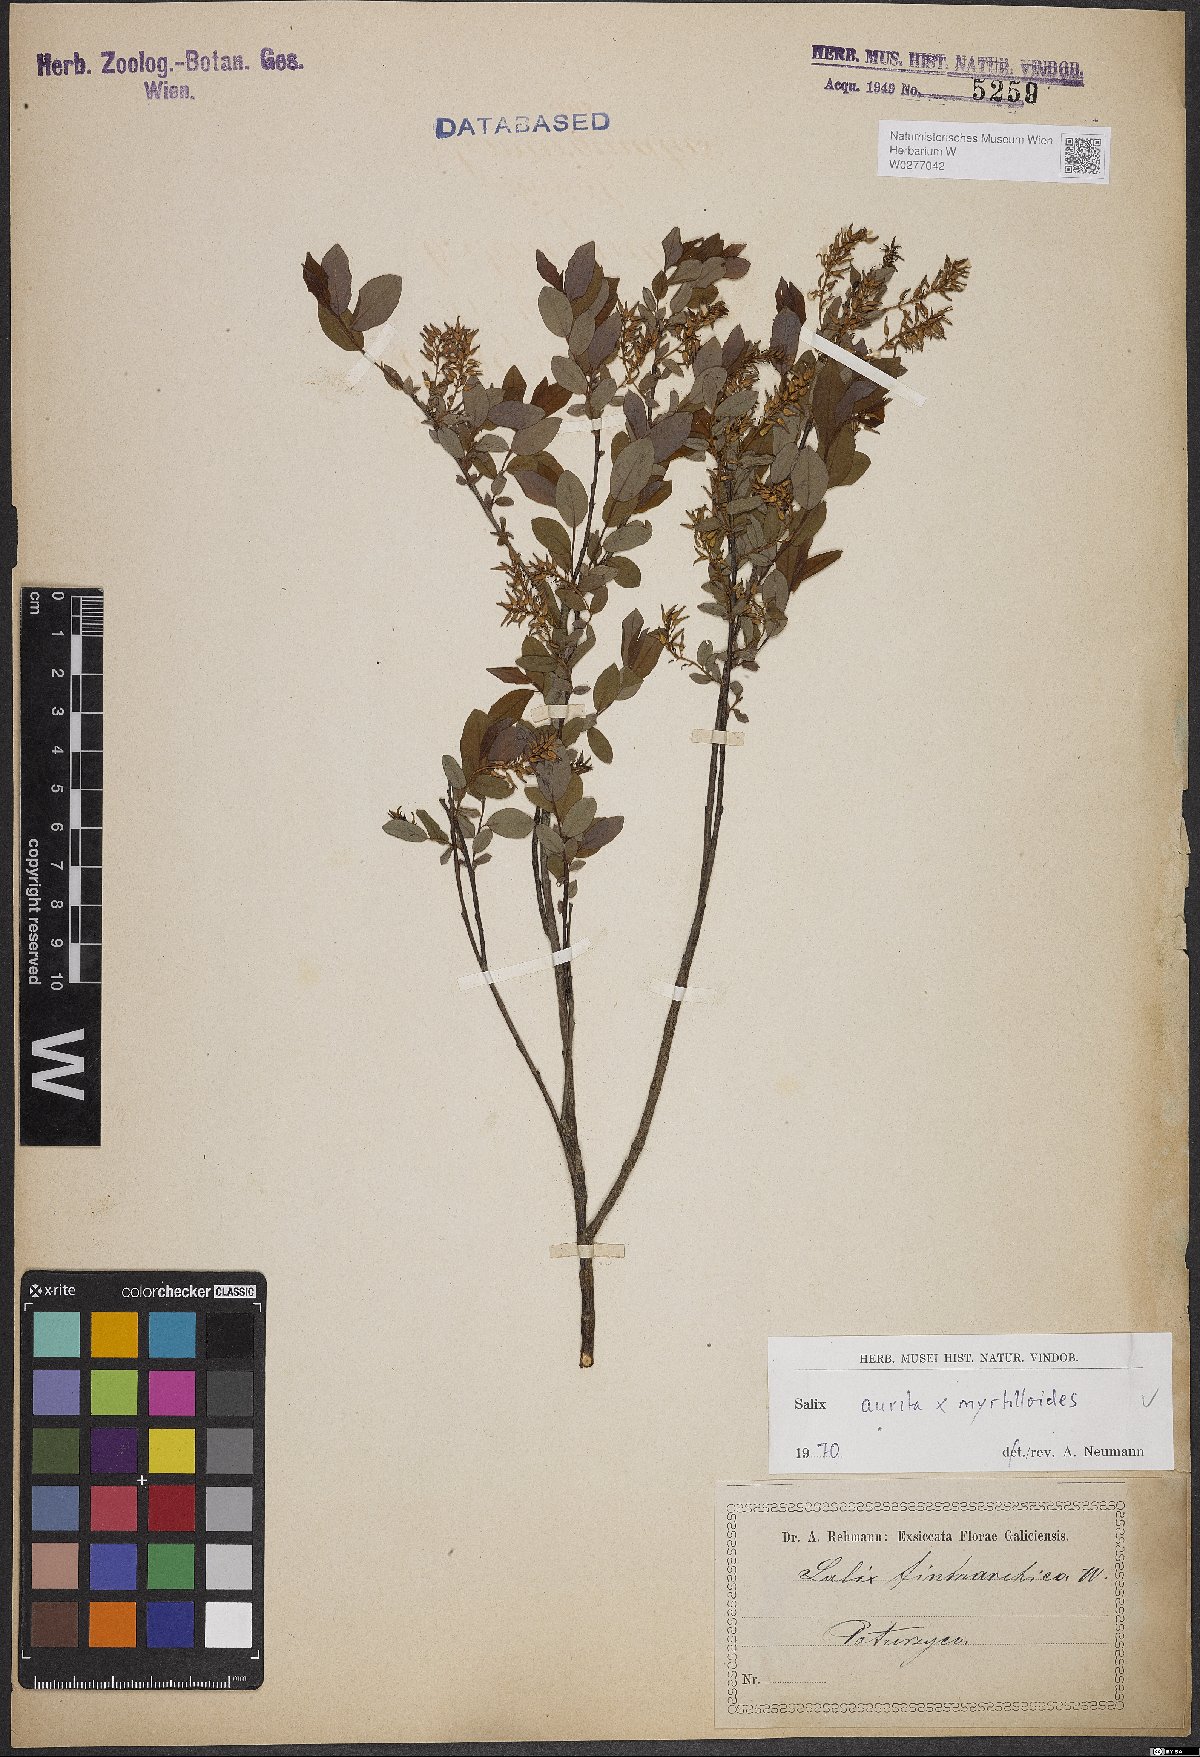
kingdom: Plantae
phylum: Tracheophyta
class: Magnoliopsida
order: Malpighiales
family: Salicaceae
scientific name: Salicaceae
